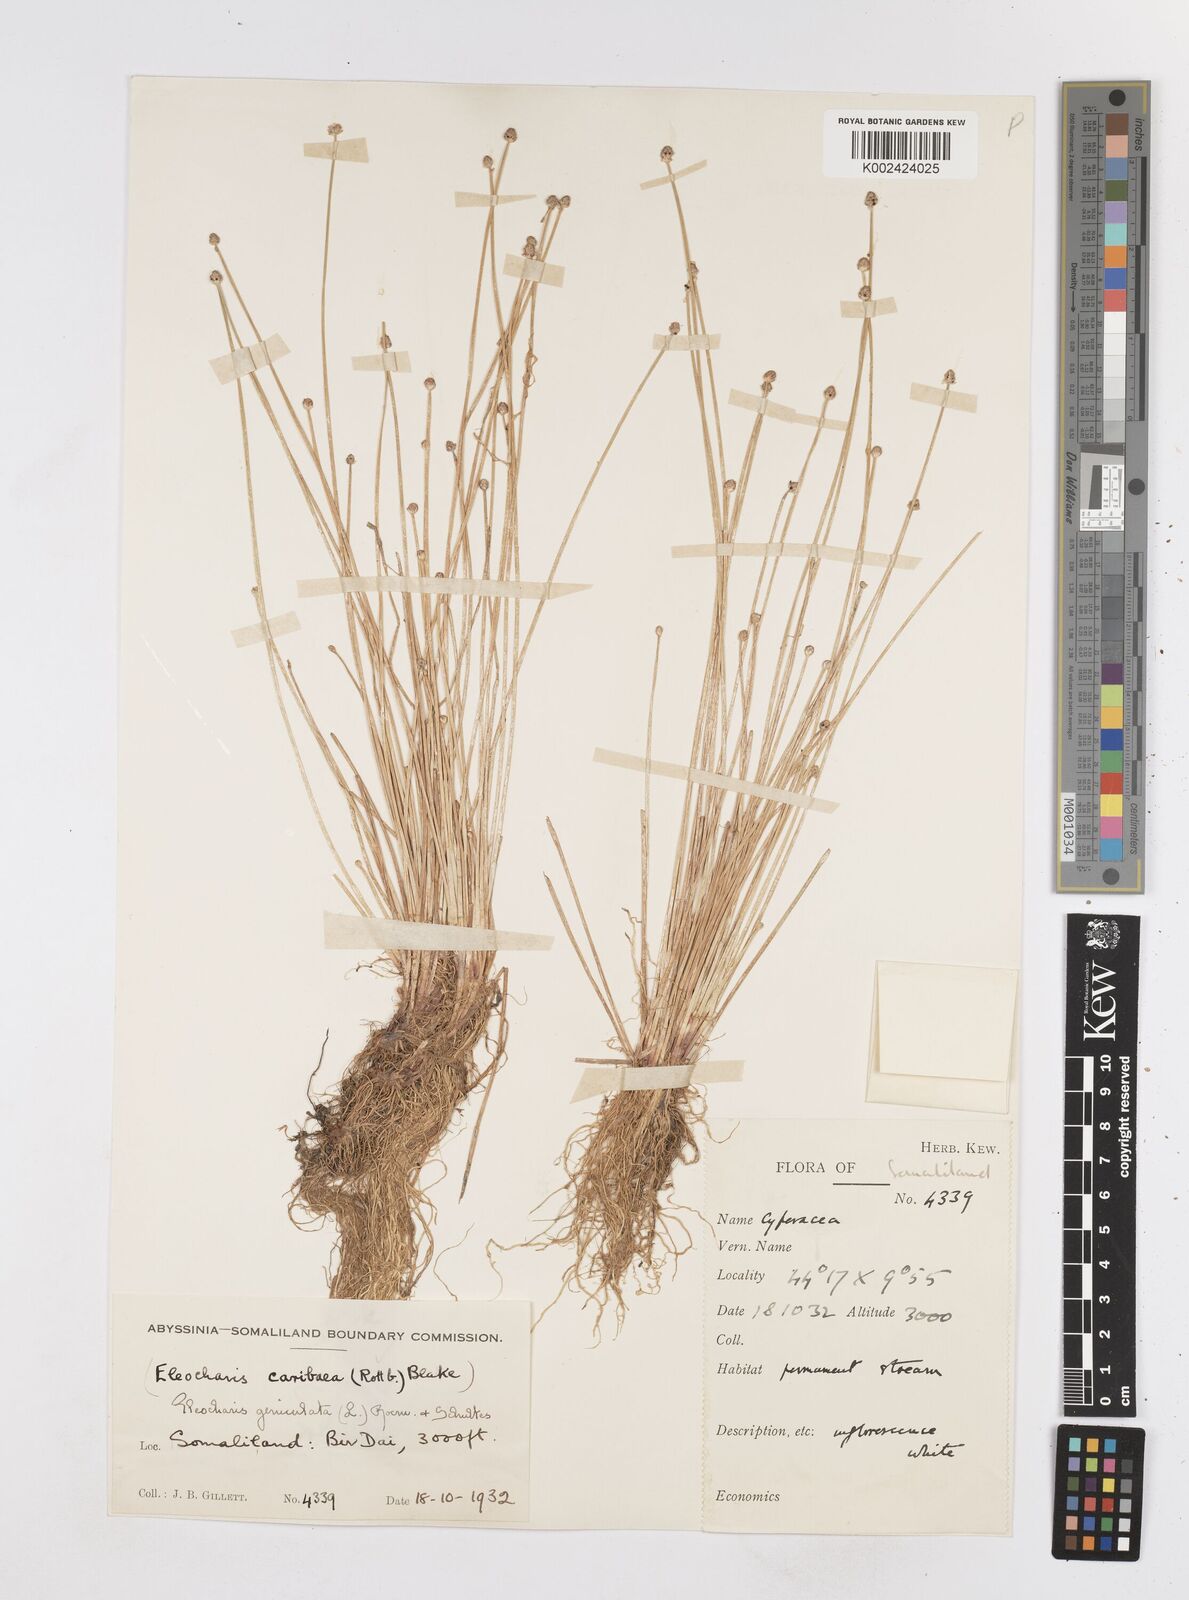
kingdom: Plantae
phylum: Tracheophyta
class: Liliopsida
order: Poales
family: Cyperaceae
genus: Eleocharis
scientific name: Eleocharis geniculata
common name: Canada spikesedge
